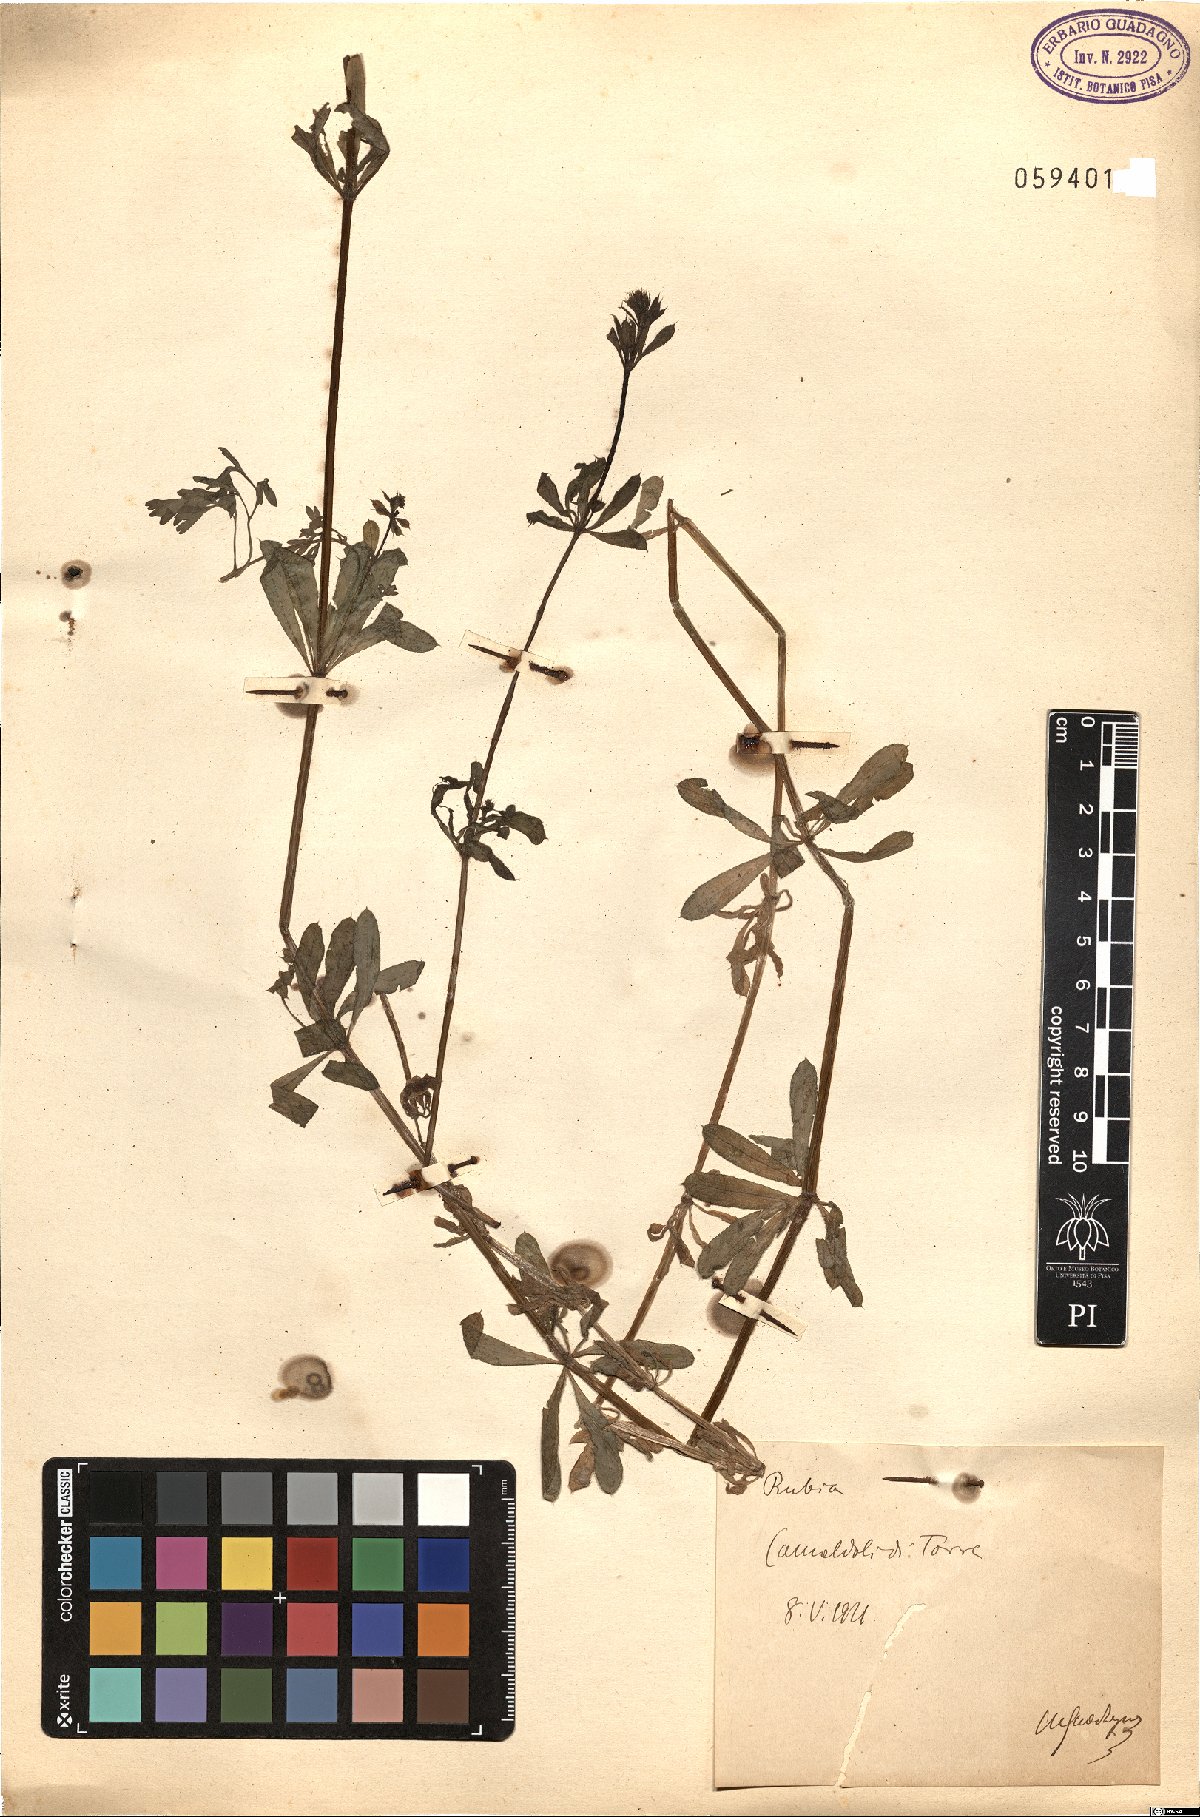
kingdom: Plantae
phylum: Tracheophyta
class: Magnoliopsida
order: Gentianales
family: Rubiaceae
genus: Rubia
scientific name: Rubia
